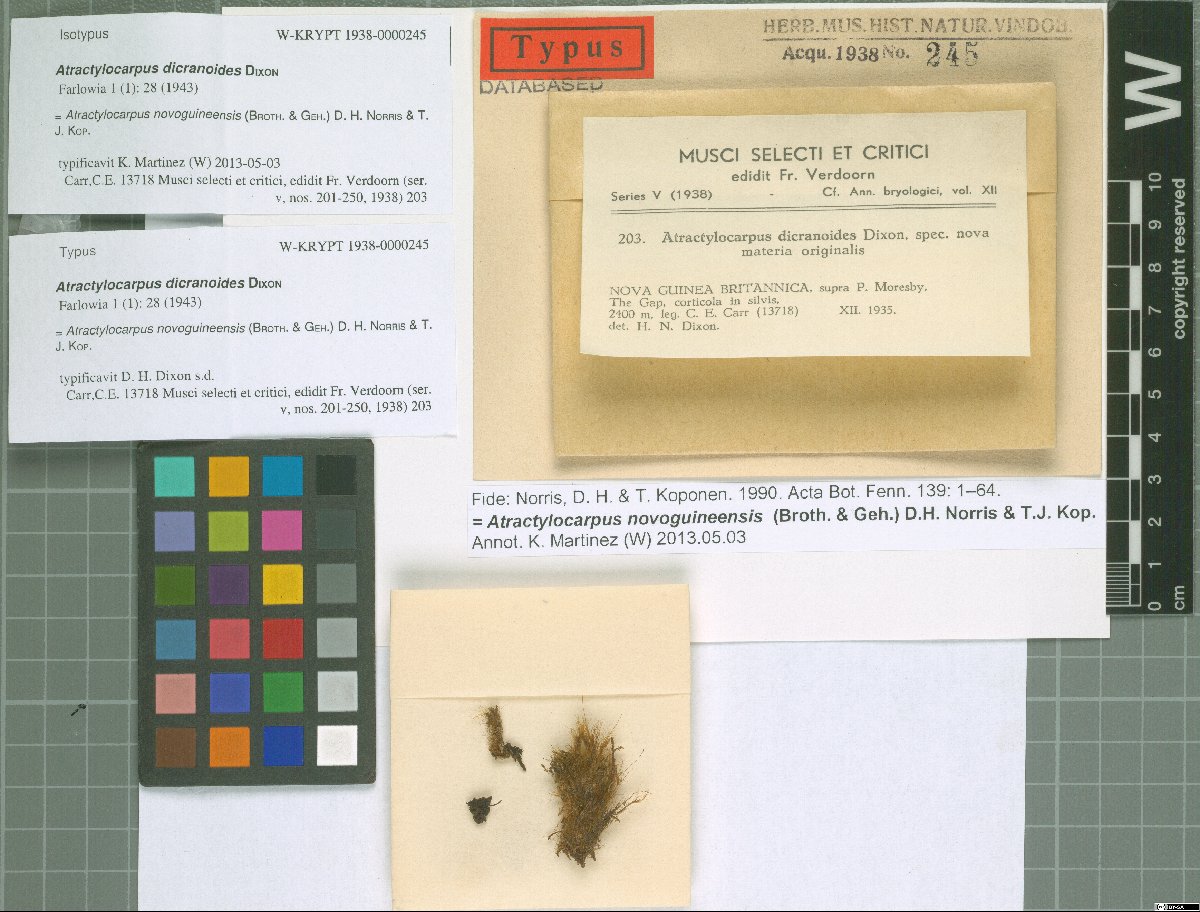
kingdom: Plantae
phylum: Bryophyta
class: Bryopsida
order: Dicranales
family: Leucobryaceae
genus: Atractylocarpus
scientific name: Atractylocarpus novoguinensis
